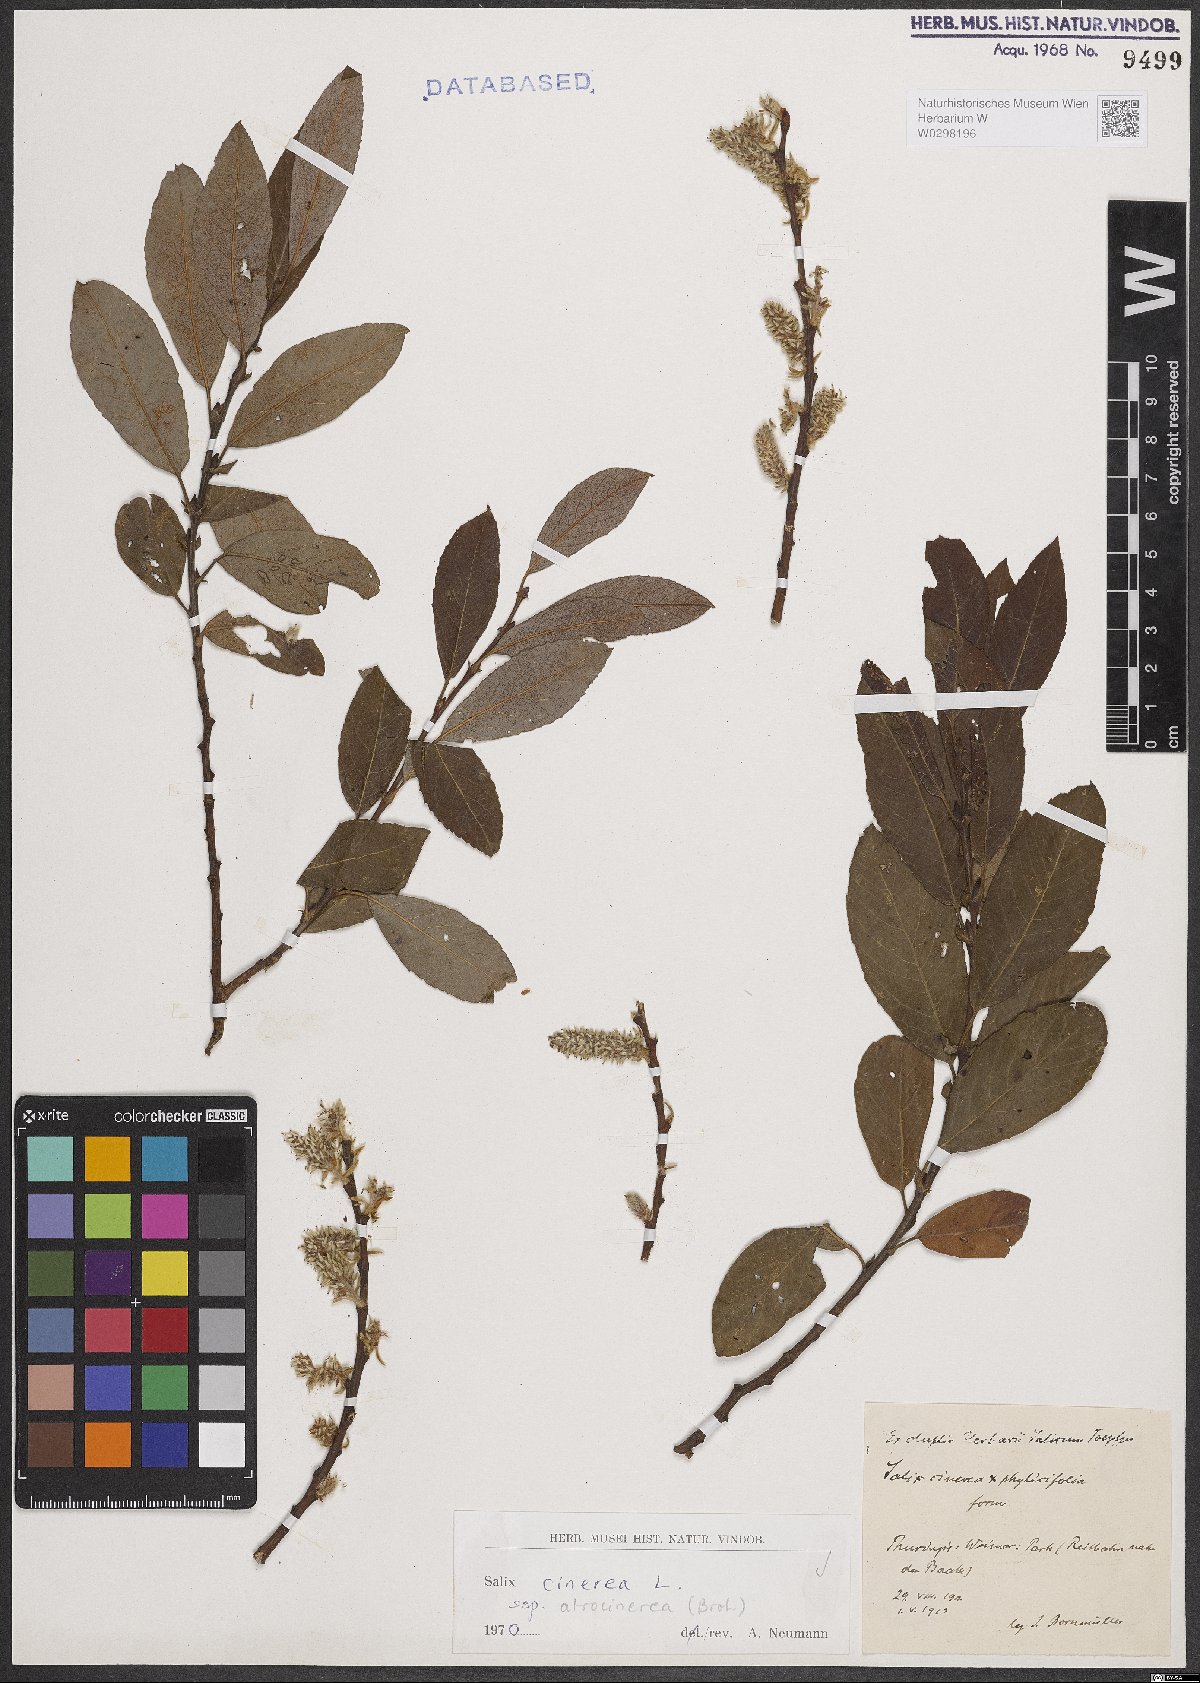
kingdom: Plantae
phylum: Tracheophyta
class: Magnoliopsida
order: Malpighiales
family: Salicaceae
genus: Salix
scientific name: Salix atrocinerea
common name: Rusty willow
